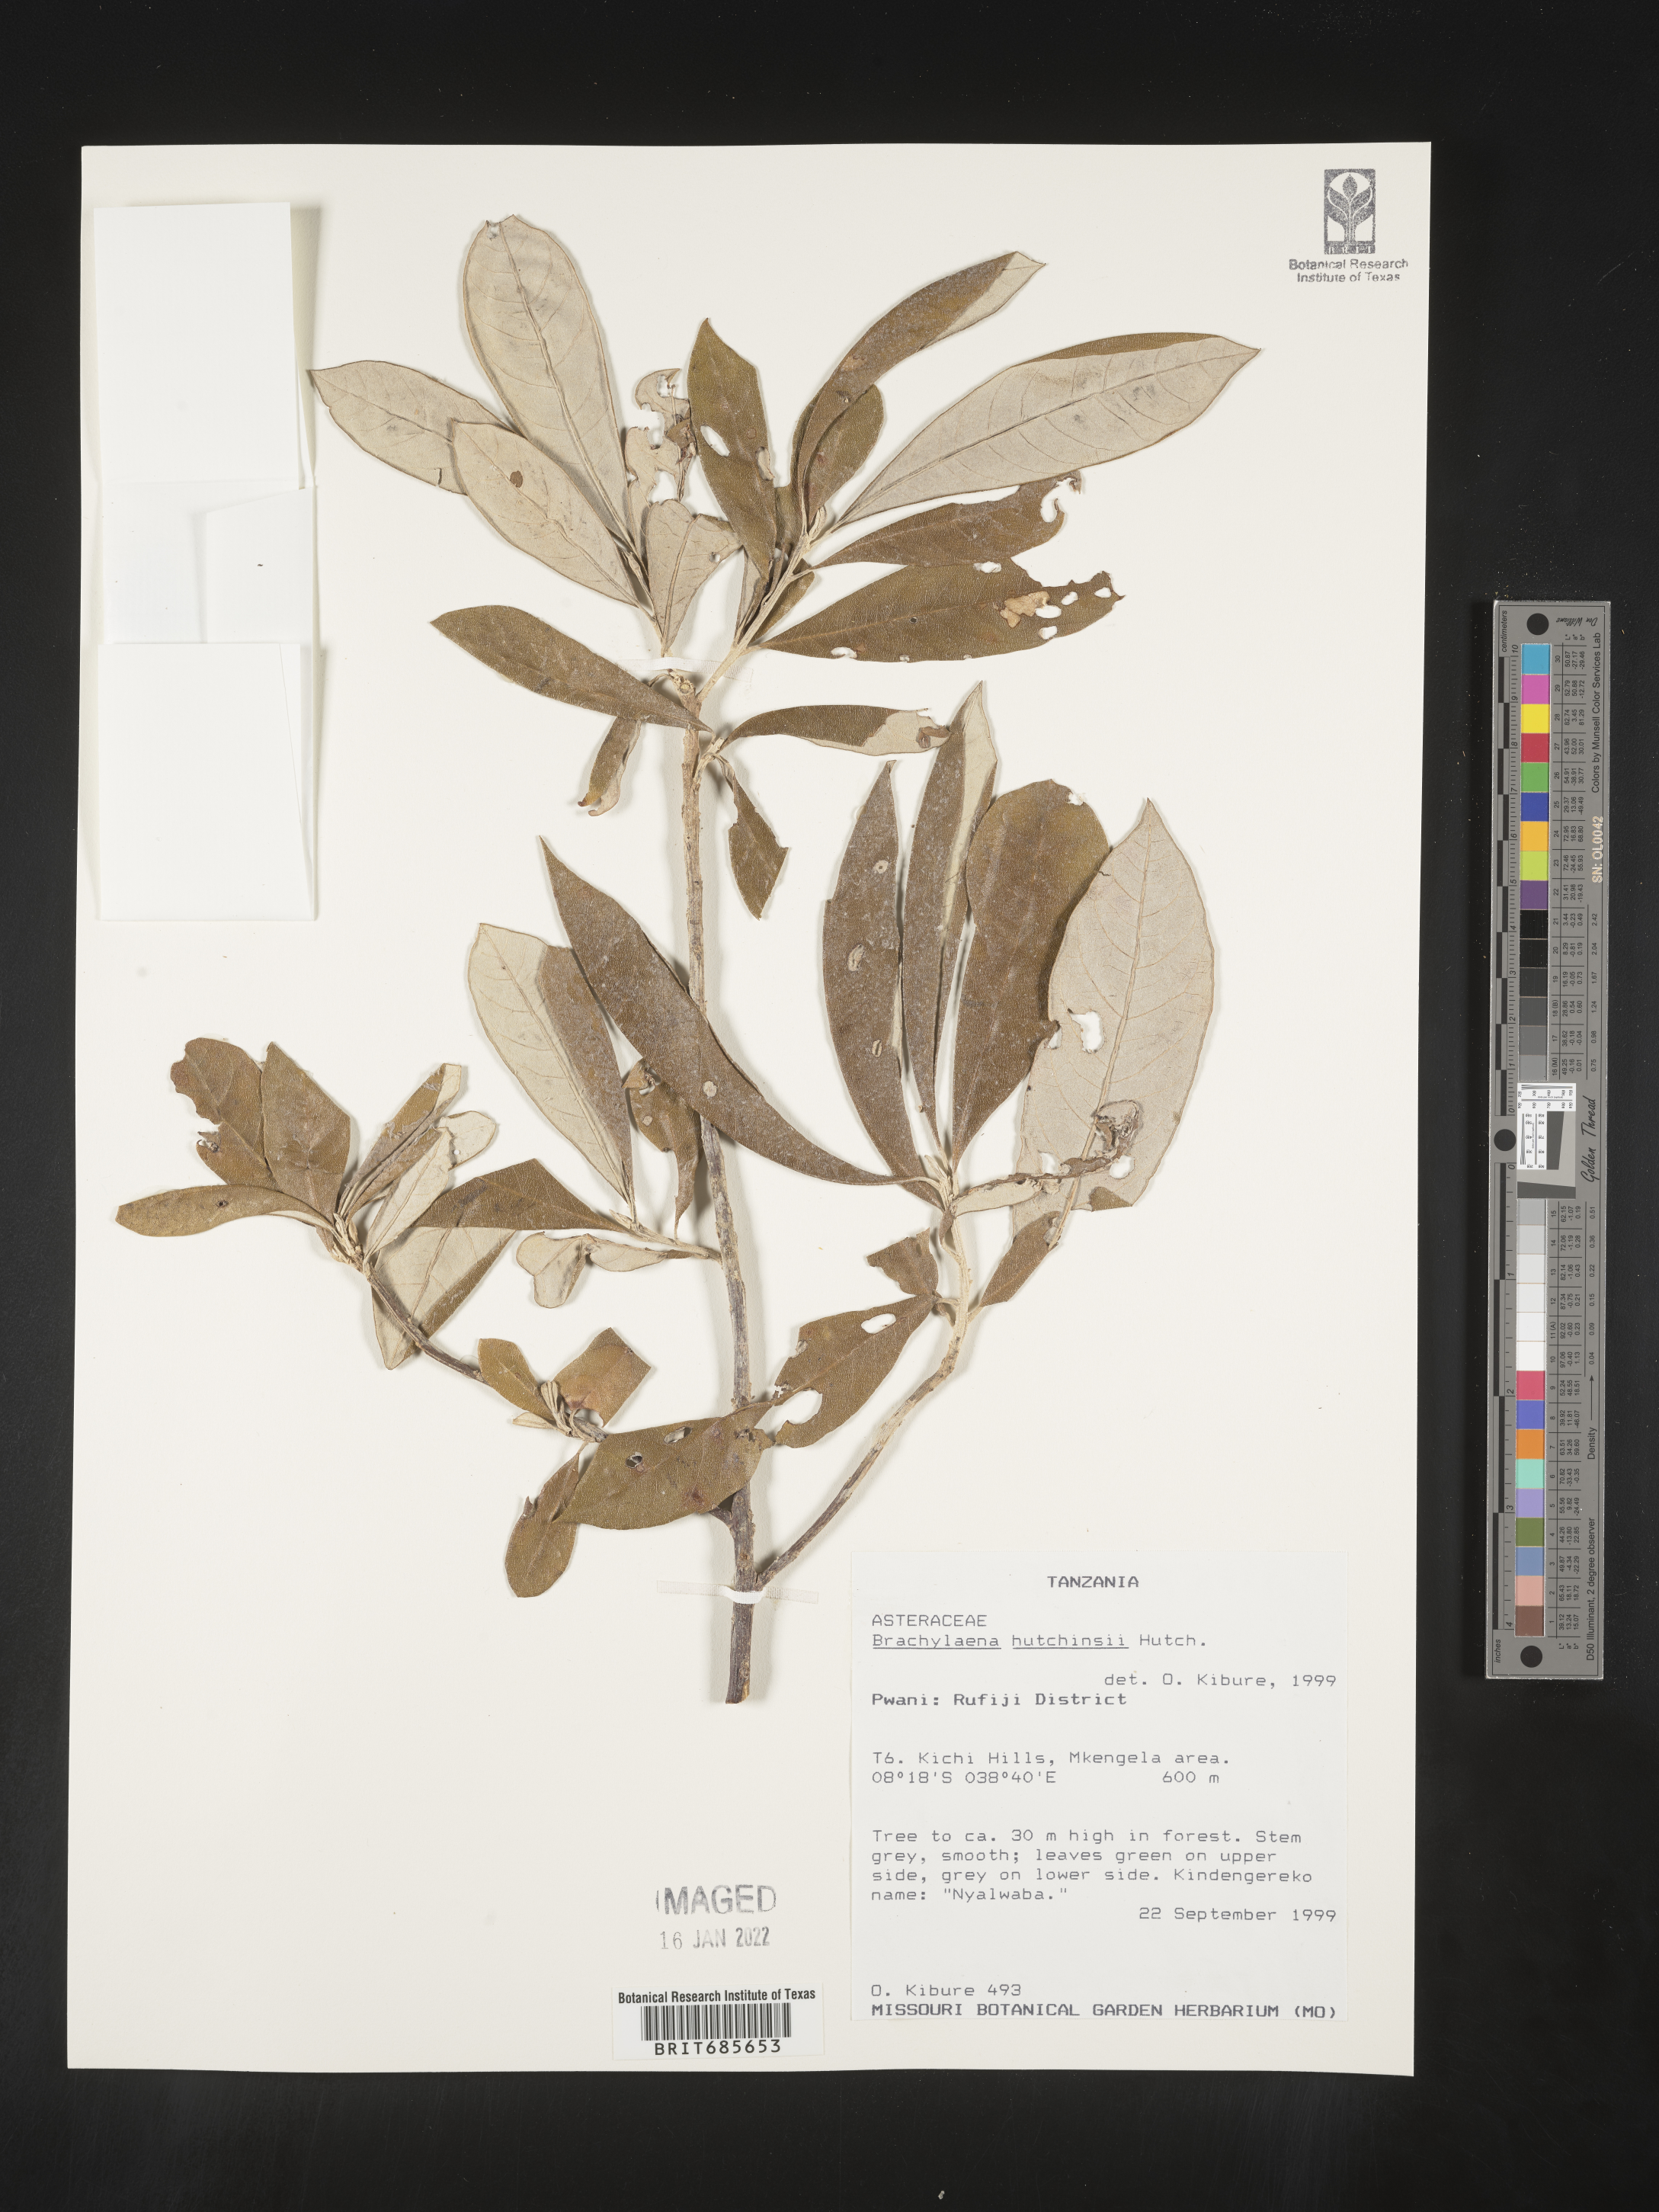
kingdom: Plantae
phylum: Tracheophyta
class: Magnoliopsida
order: Asterales
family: Asteraceae
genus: Brachylaena
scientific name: Brachylaena
